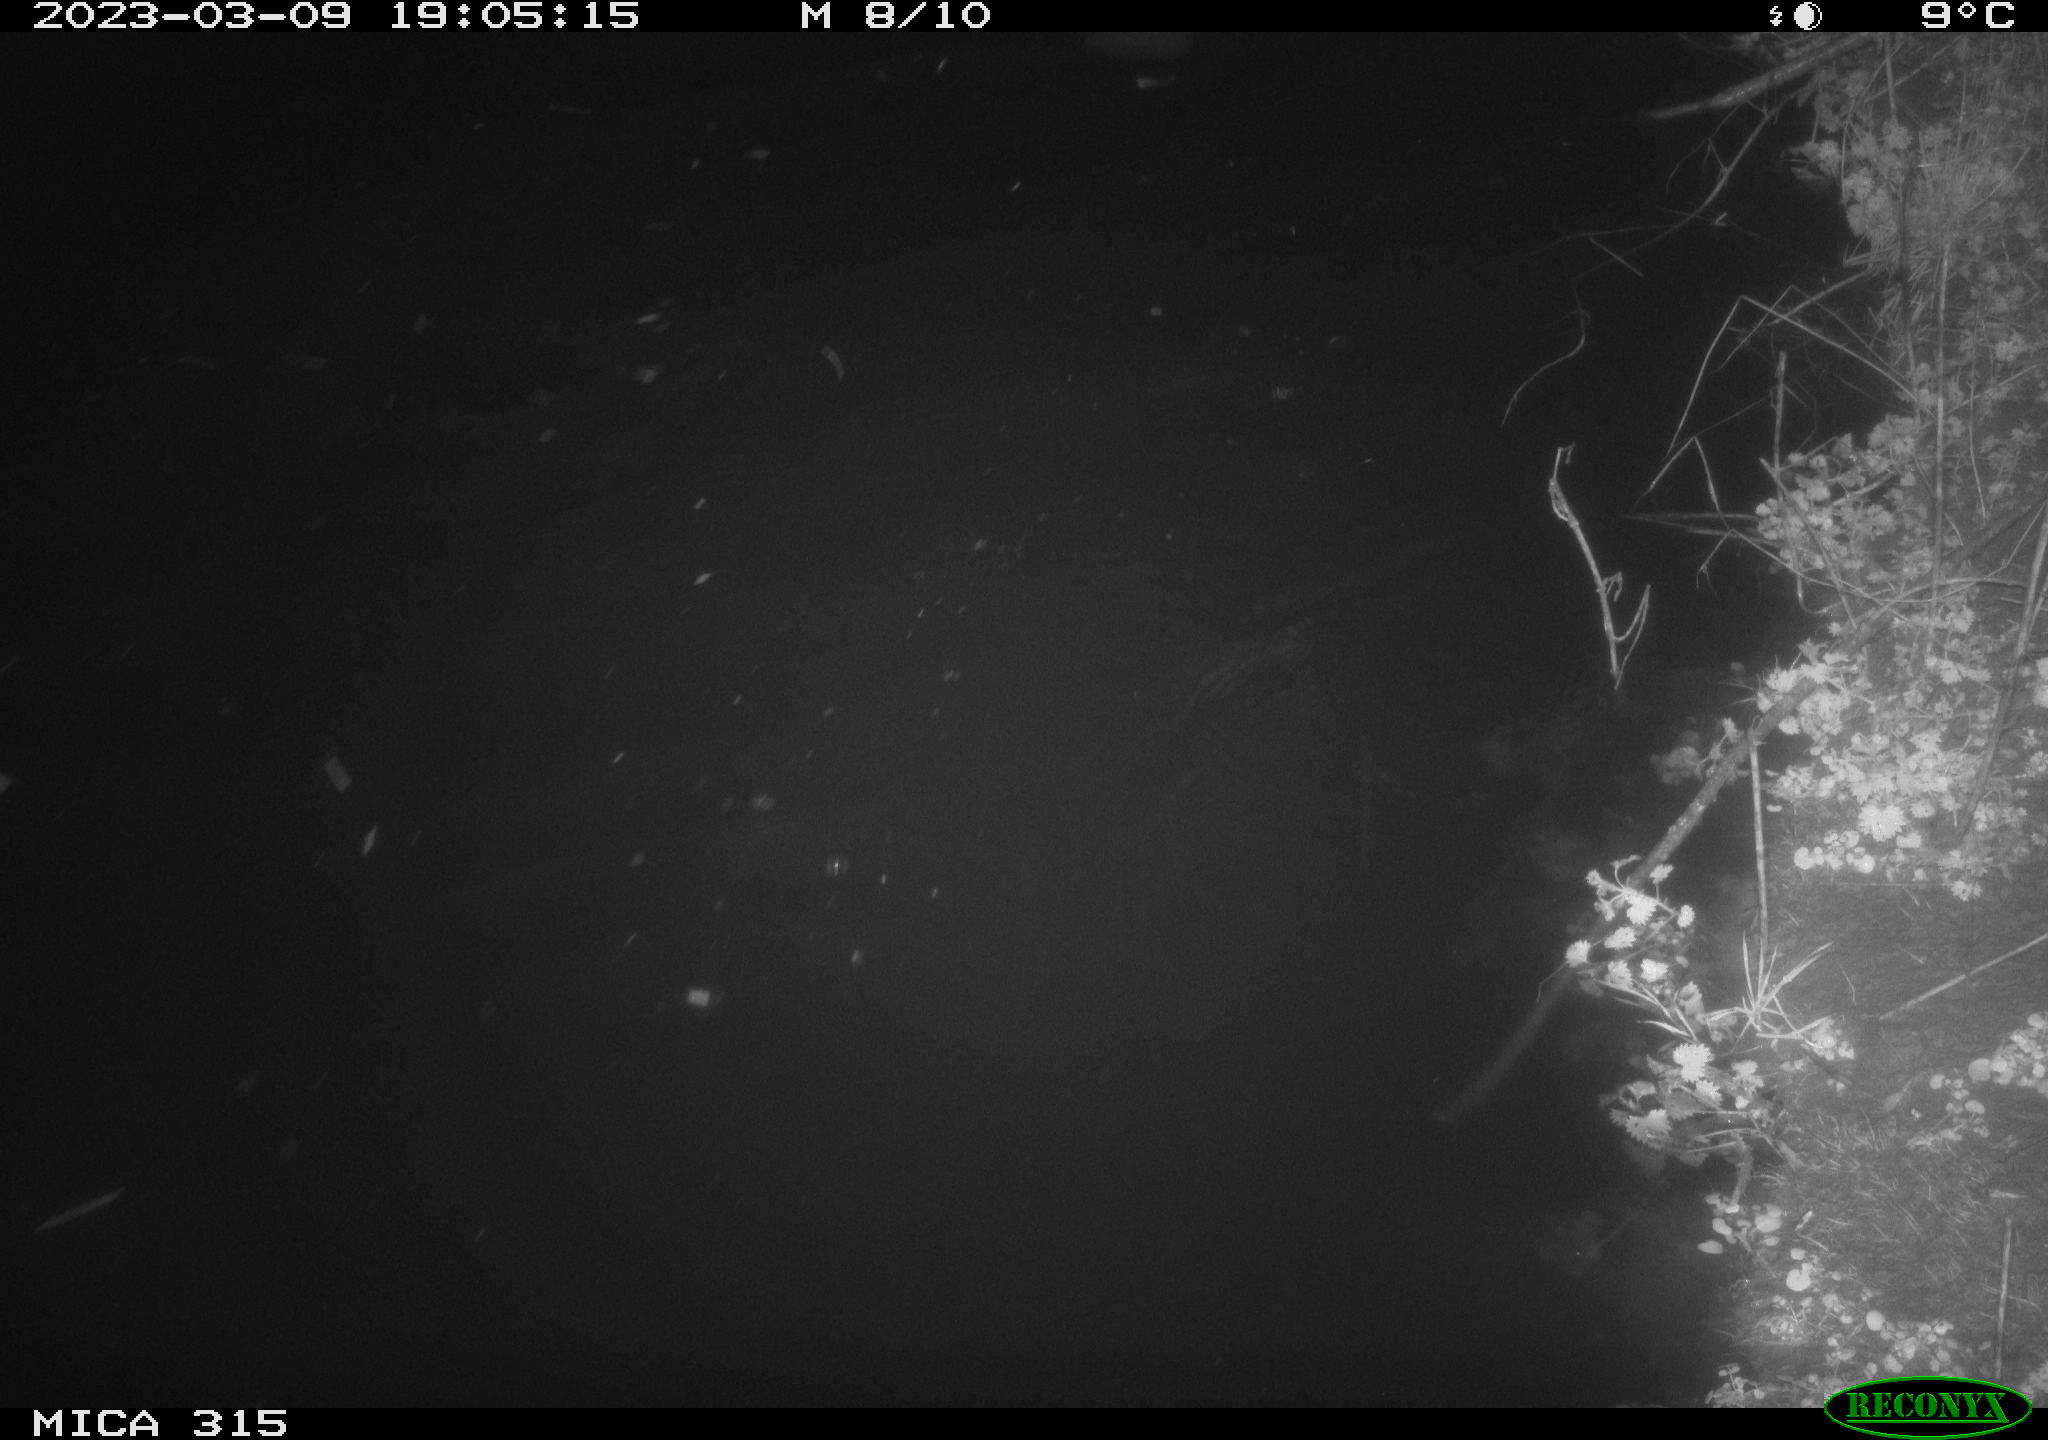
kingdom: Animalia
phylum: Chordata
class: Aves
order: Anseriformes
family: Anatidae
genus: Anas
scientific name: Anas
